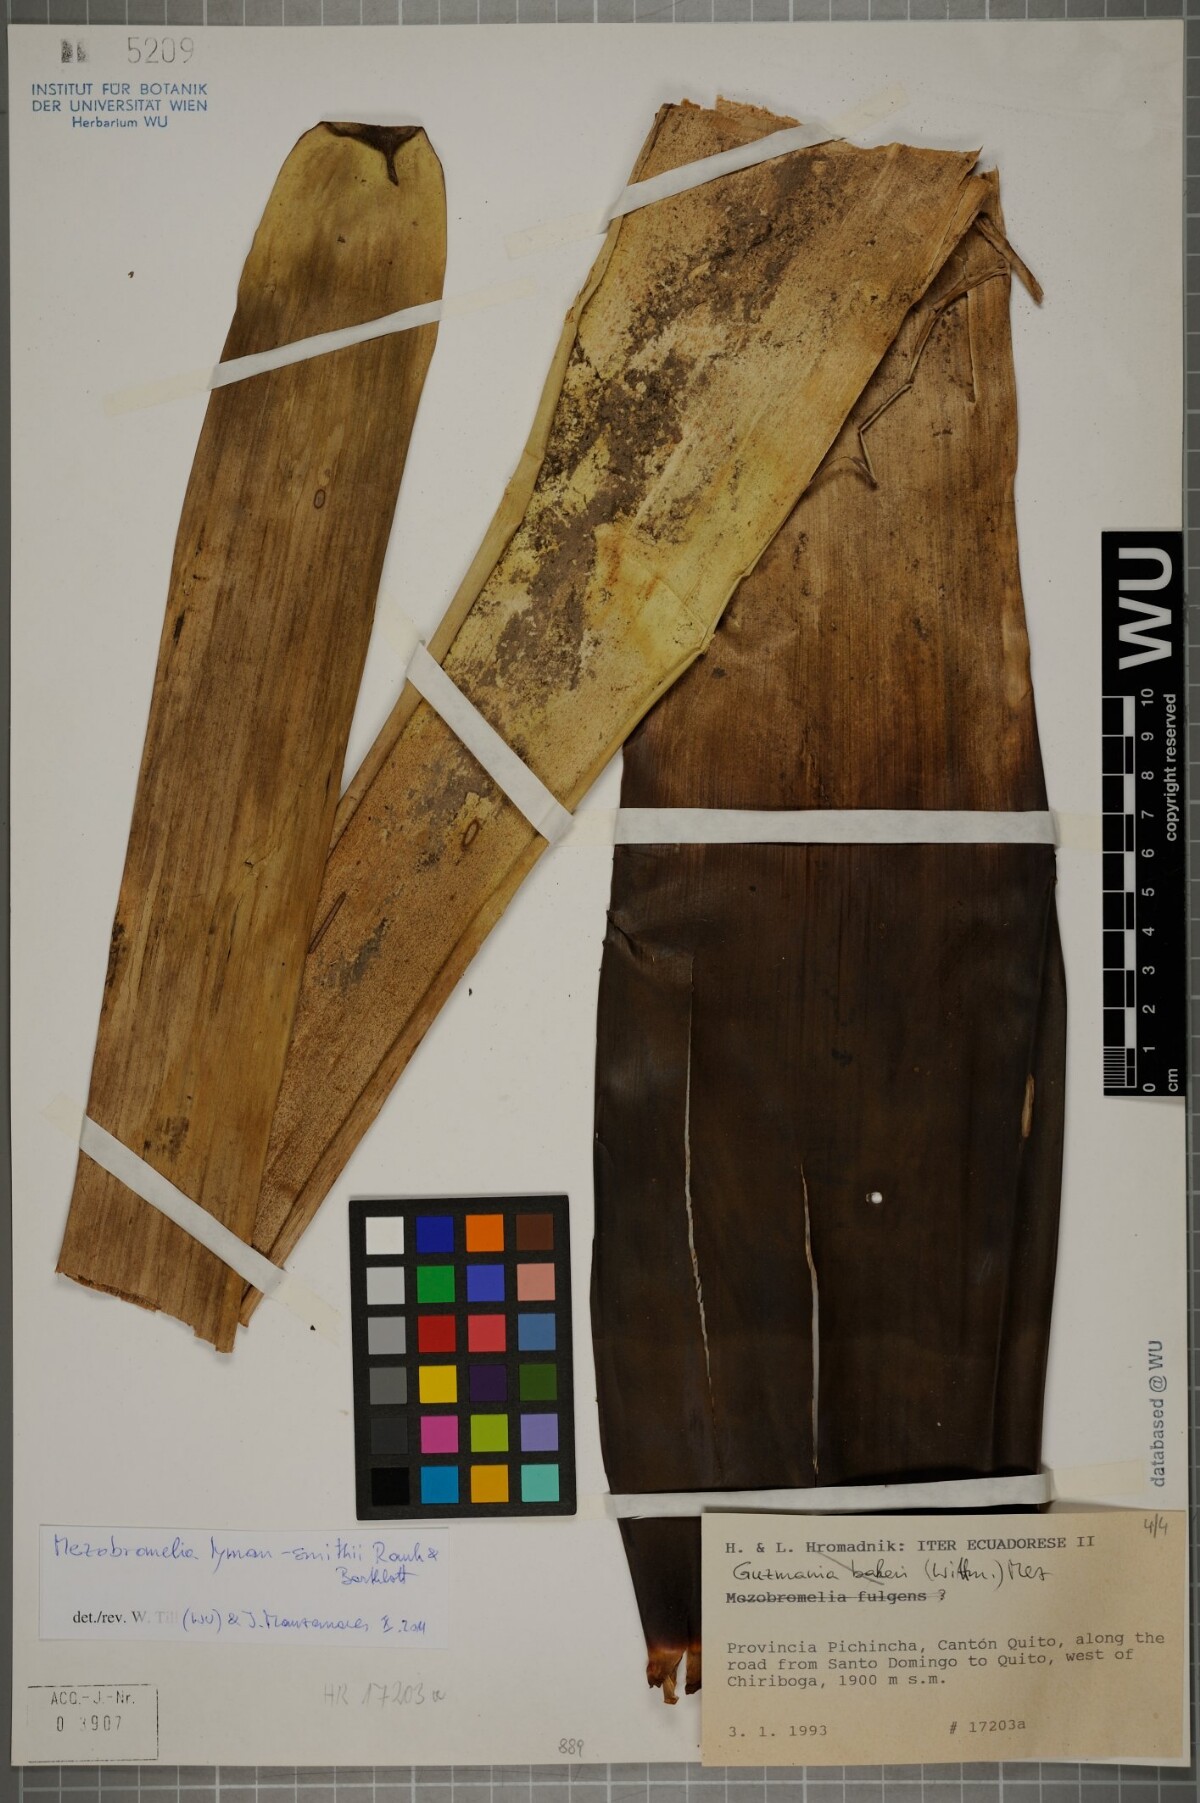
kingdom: Plantae
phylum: Tracheophyta
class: Liliopsida
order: Poales
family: Bromeliaceae
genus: Gregbrownia
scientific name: Gregbrownia lyman-smithii
